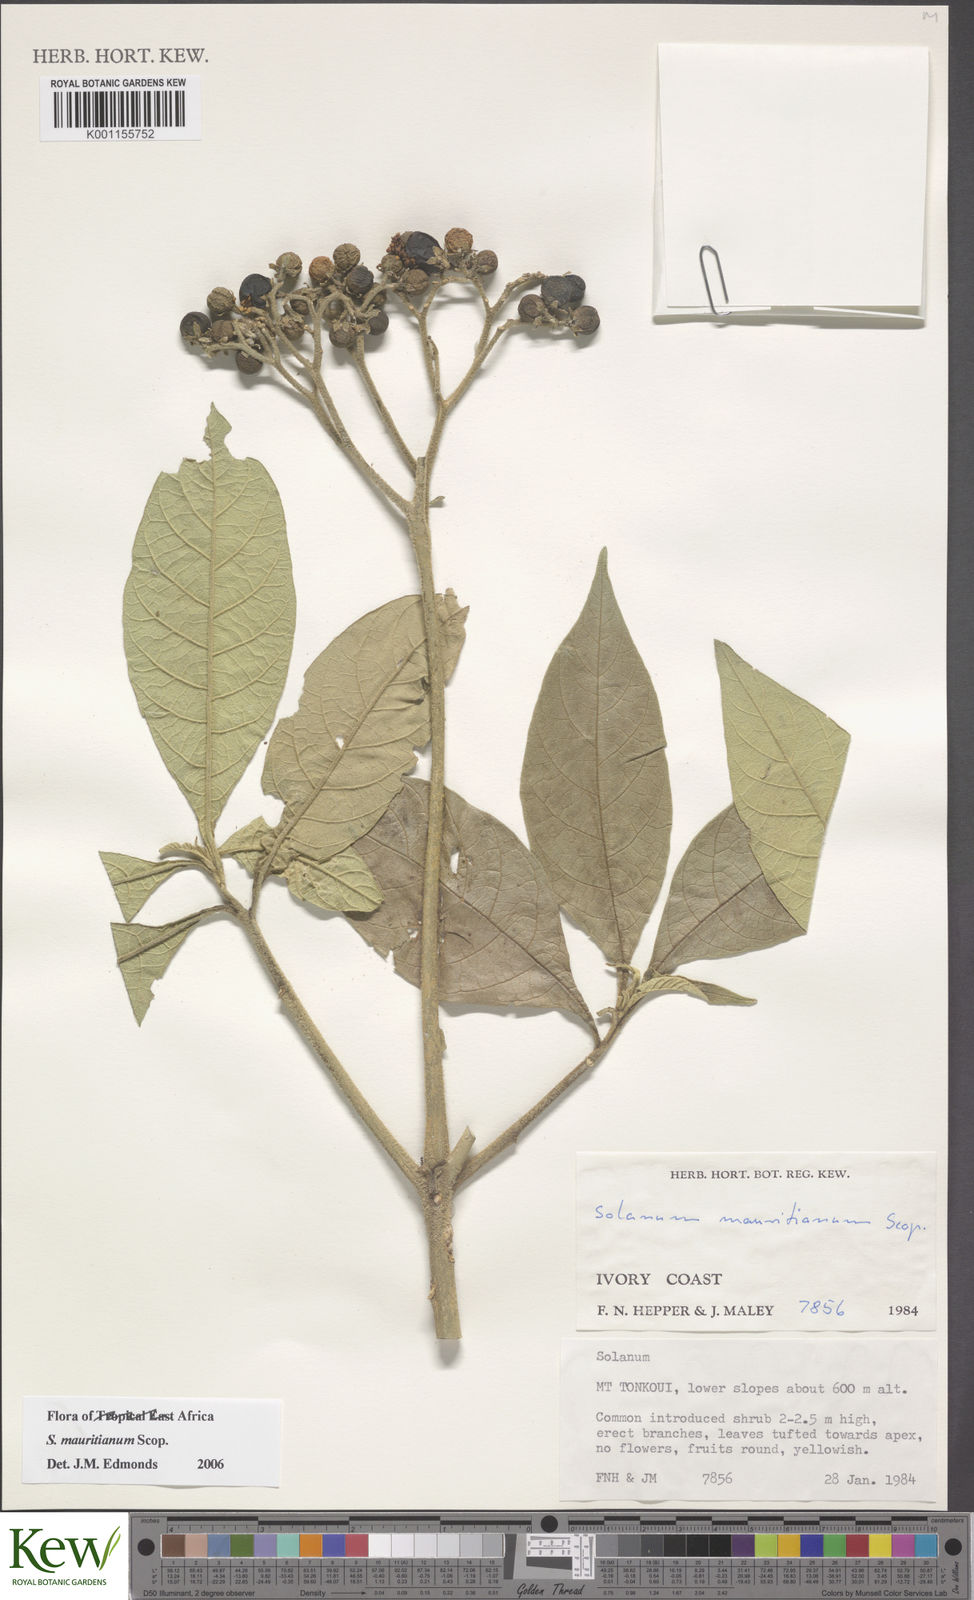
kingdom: Plantae
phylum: Tracheophyta
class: Magnoliopsida
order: Solanales
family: Solanaceae
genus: Solanum
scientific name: Solanum mauritianum
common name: Earleaf nightshade
